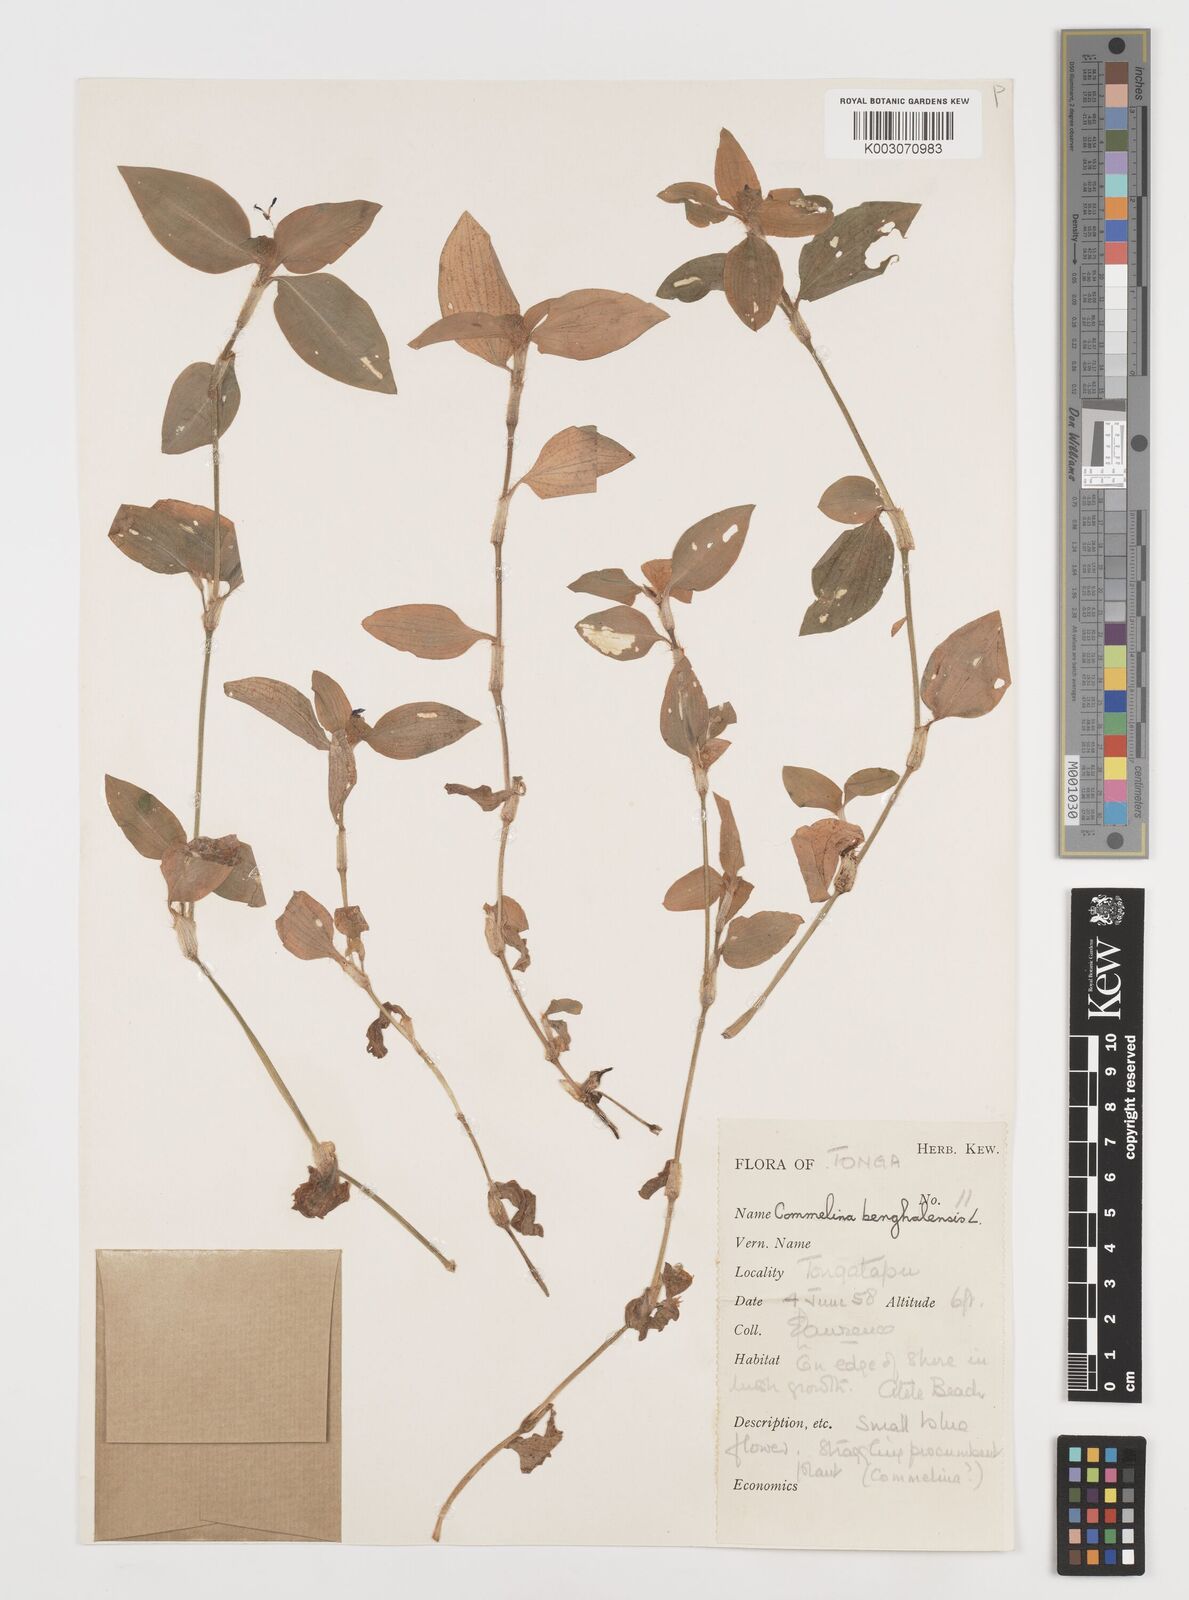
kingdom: Plantae
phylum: Tracheophyta
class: Liliopsida
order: Commelinales
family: Commelinaceae
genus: Commelina
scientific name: Commelina benghalensis
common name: Jio
